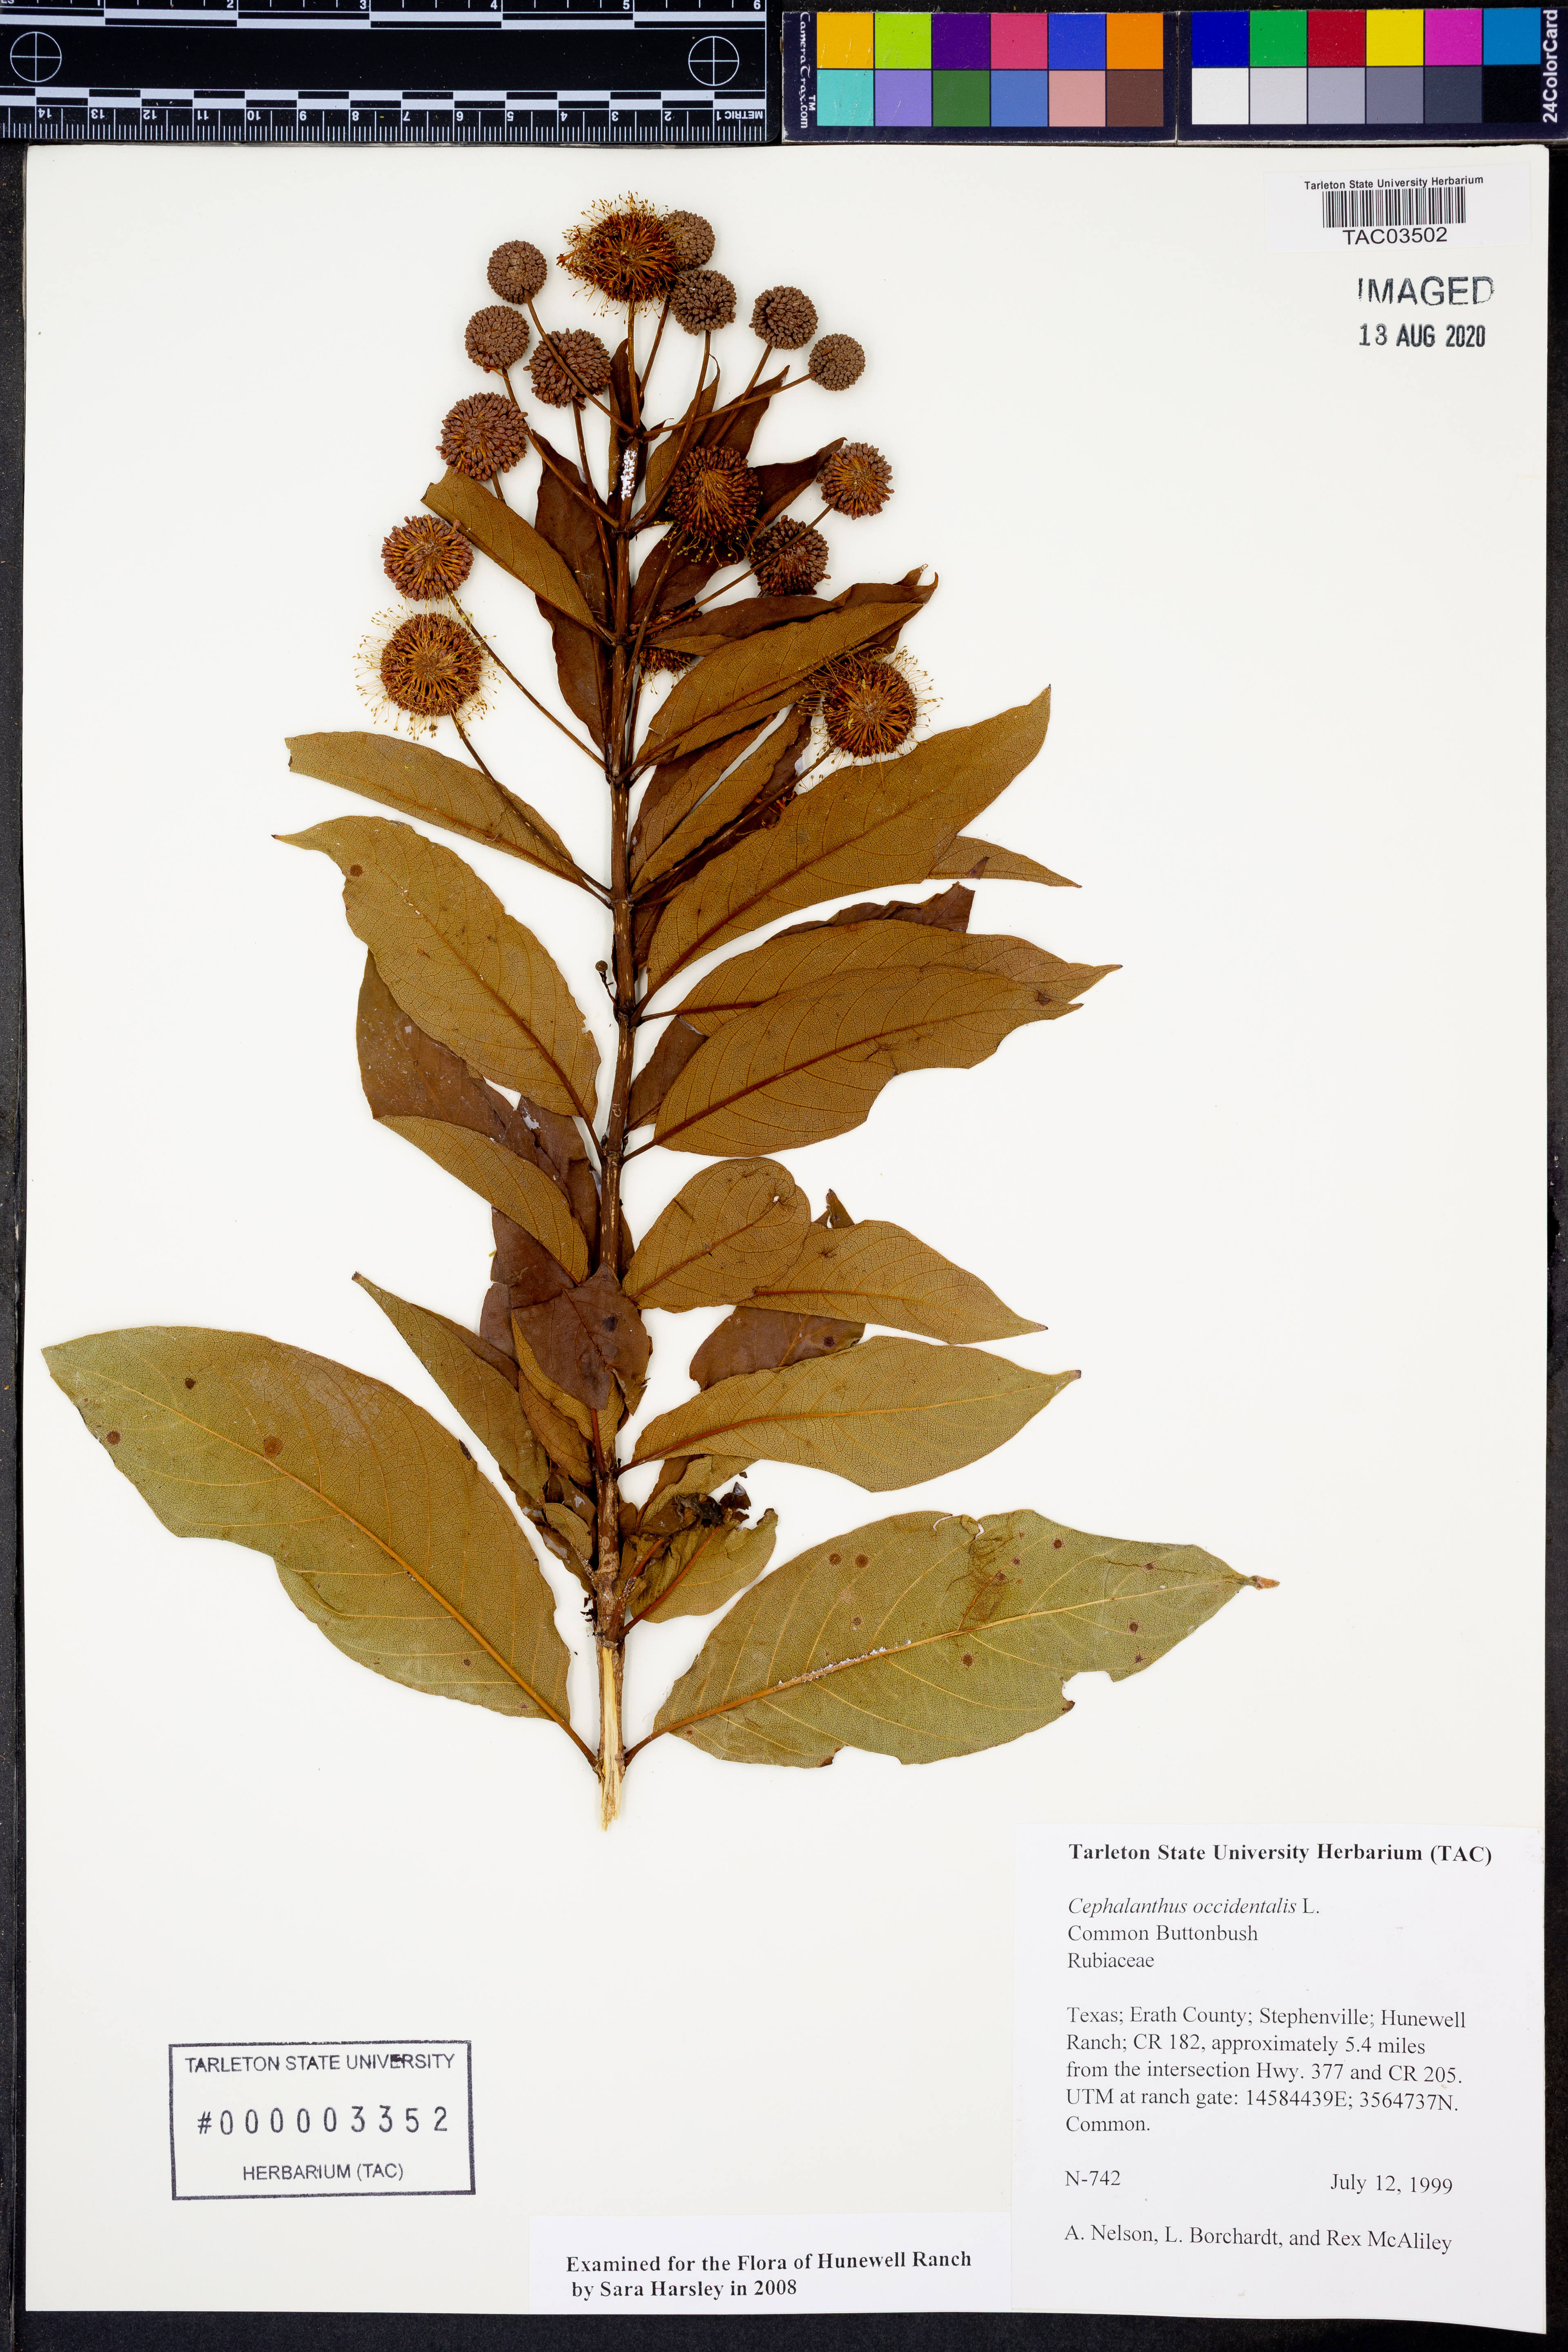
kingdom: Plantae
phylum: Tracheophyta
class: Magnoliopsida
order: Gentianales
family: Rubiaceae
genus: Cephalanthus
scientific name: Cephalanthus occidentalis
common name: Button-willow
